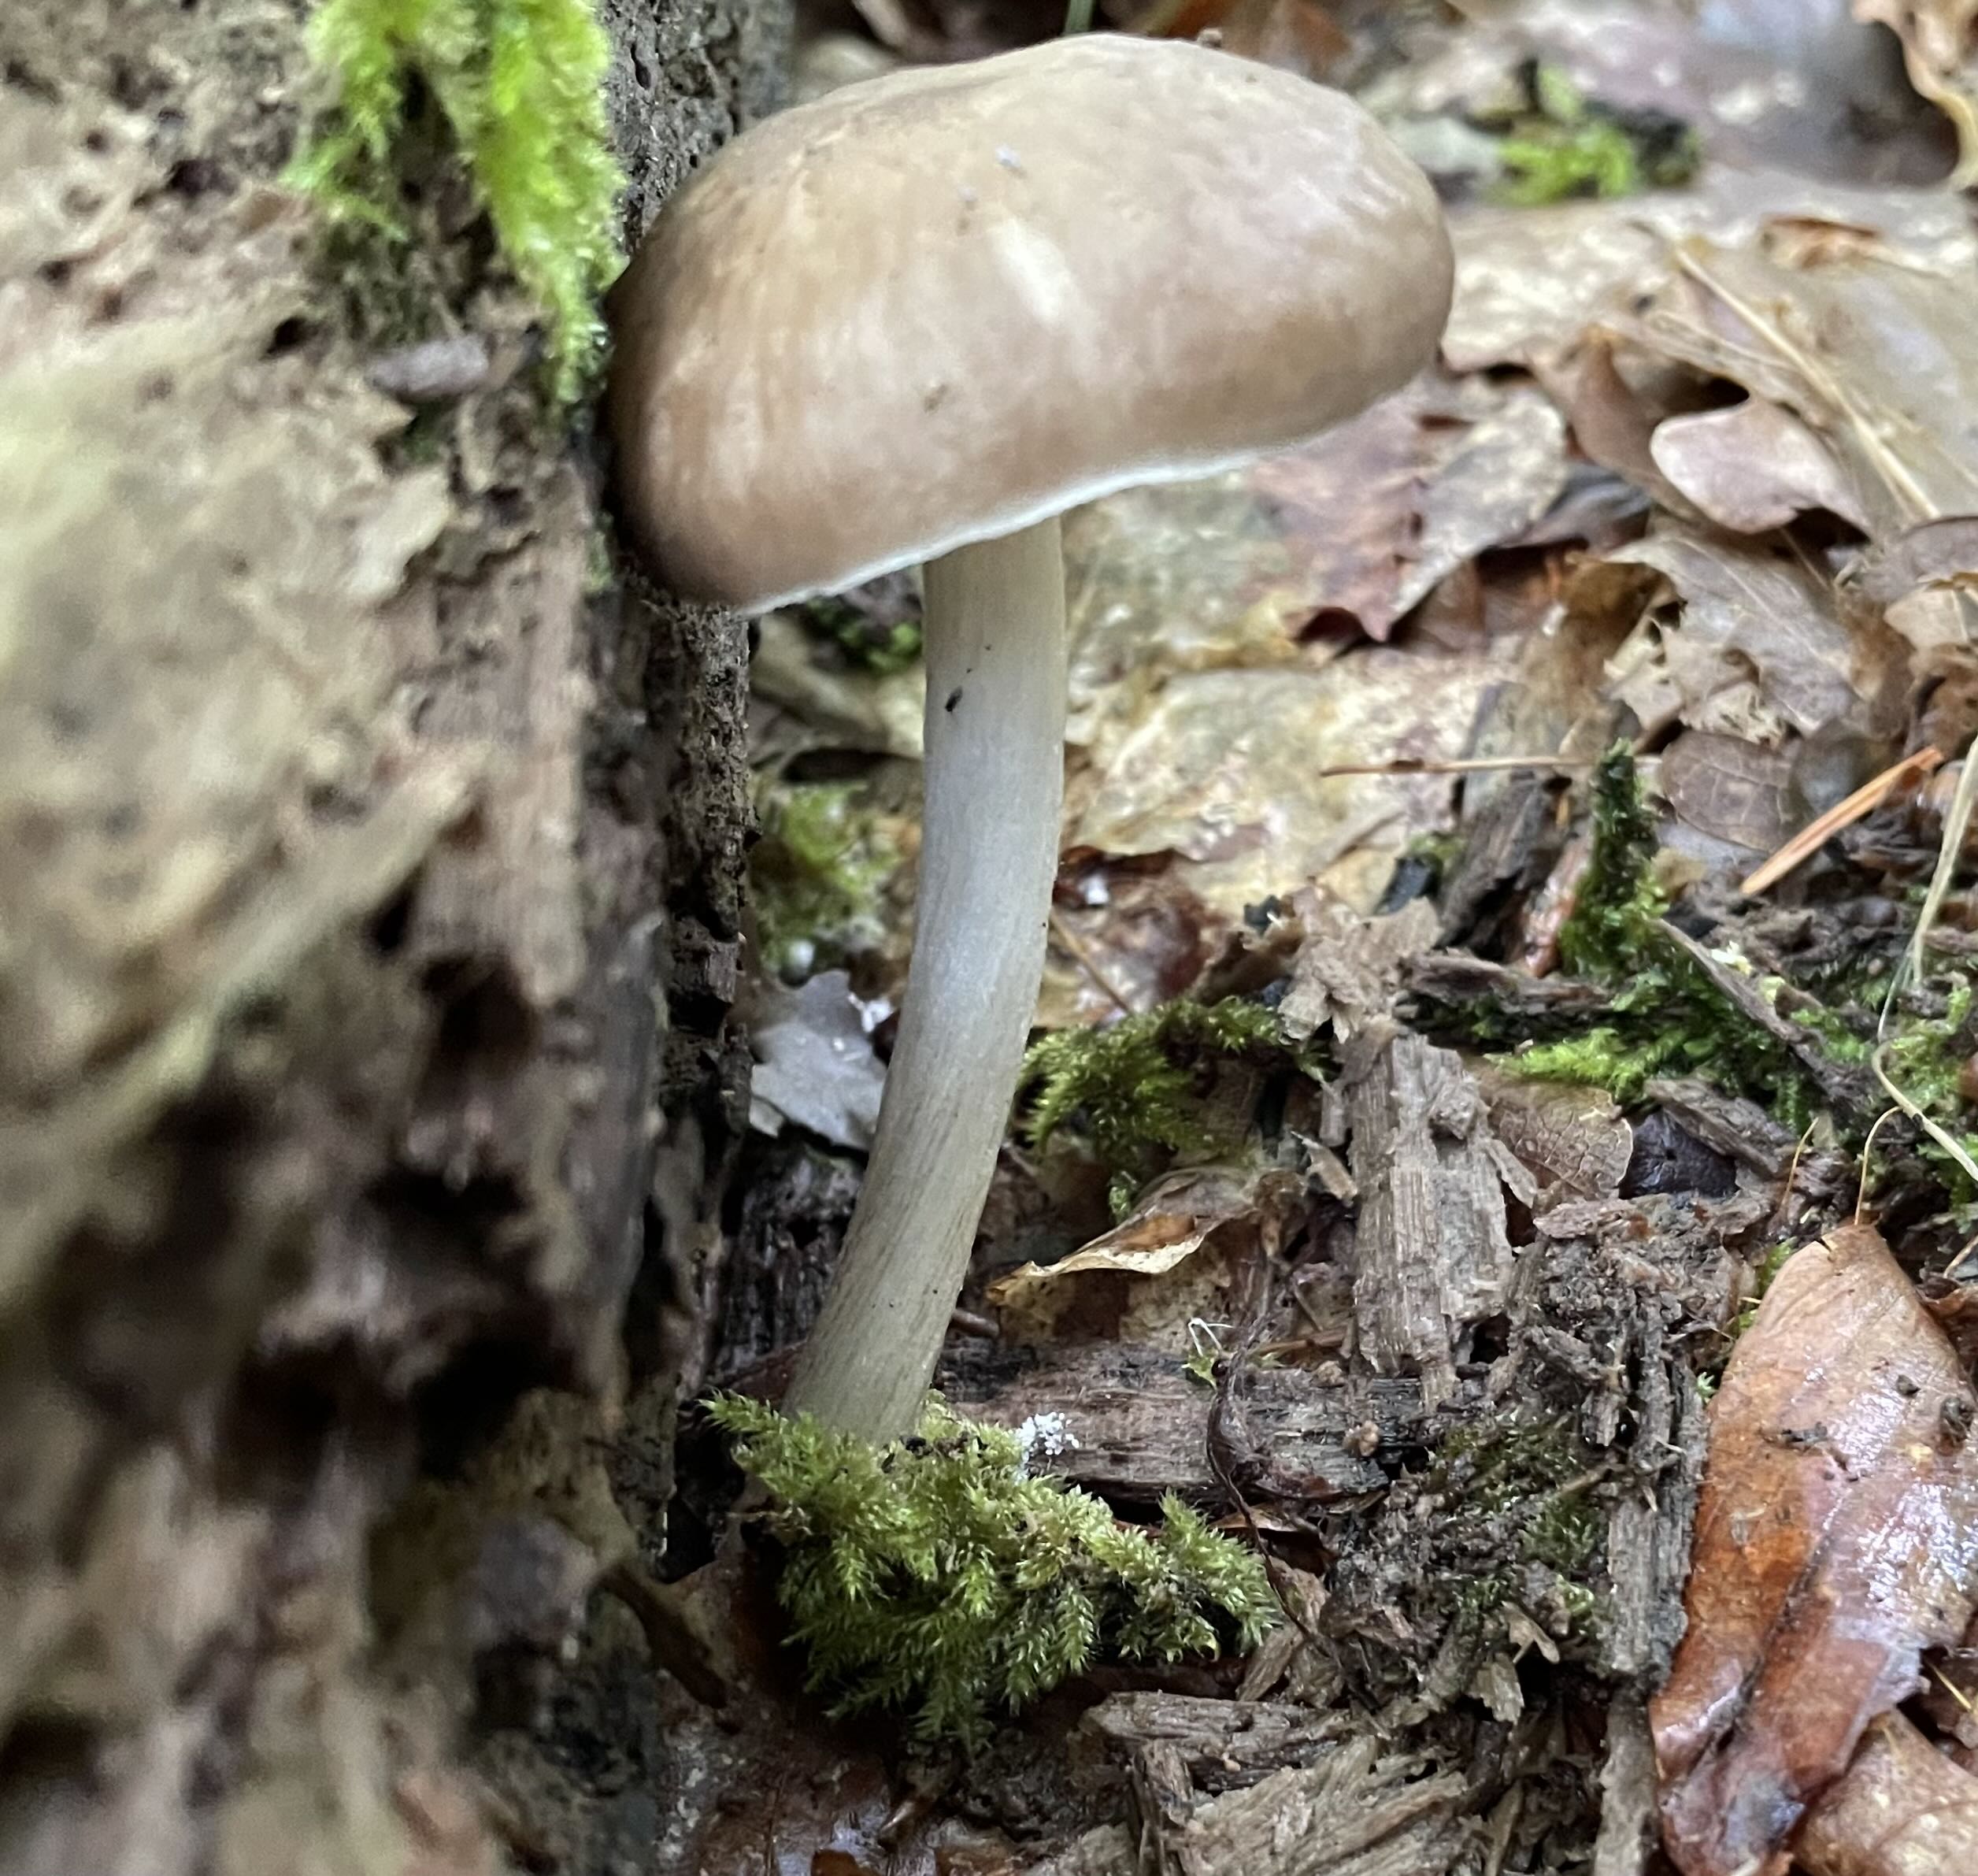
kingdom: Fungi
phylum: Basidiomycota
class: Agaricomycetes
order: Agaricales
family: Pluteaceae
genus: Pluteus
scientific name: Pluteus
